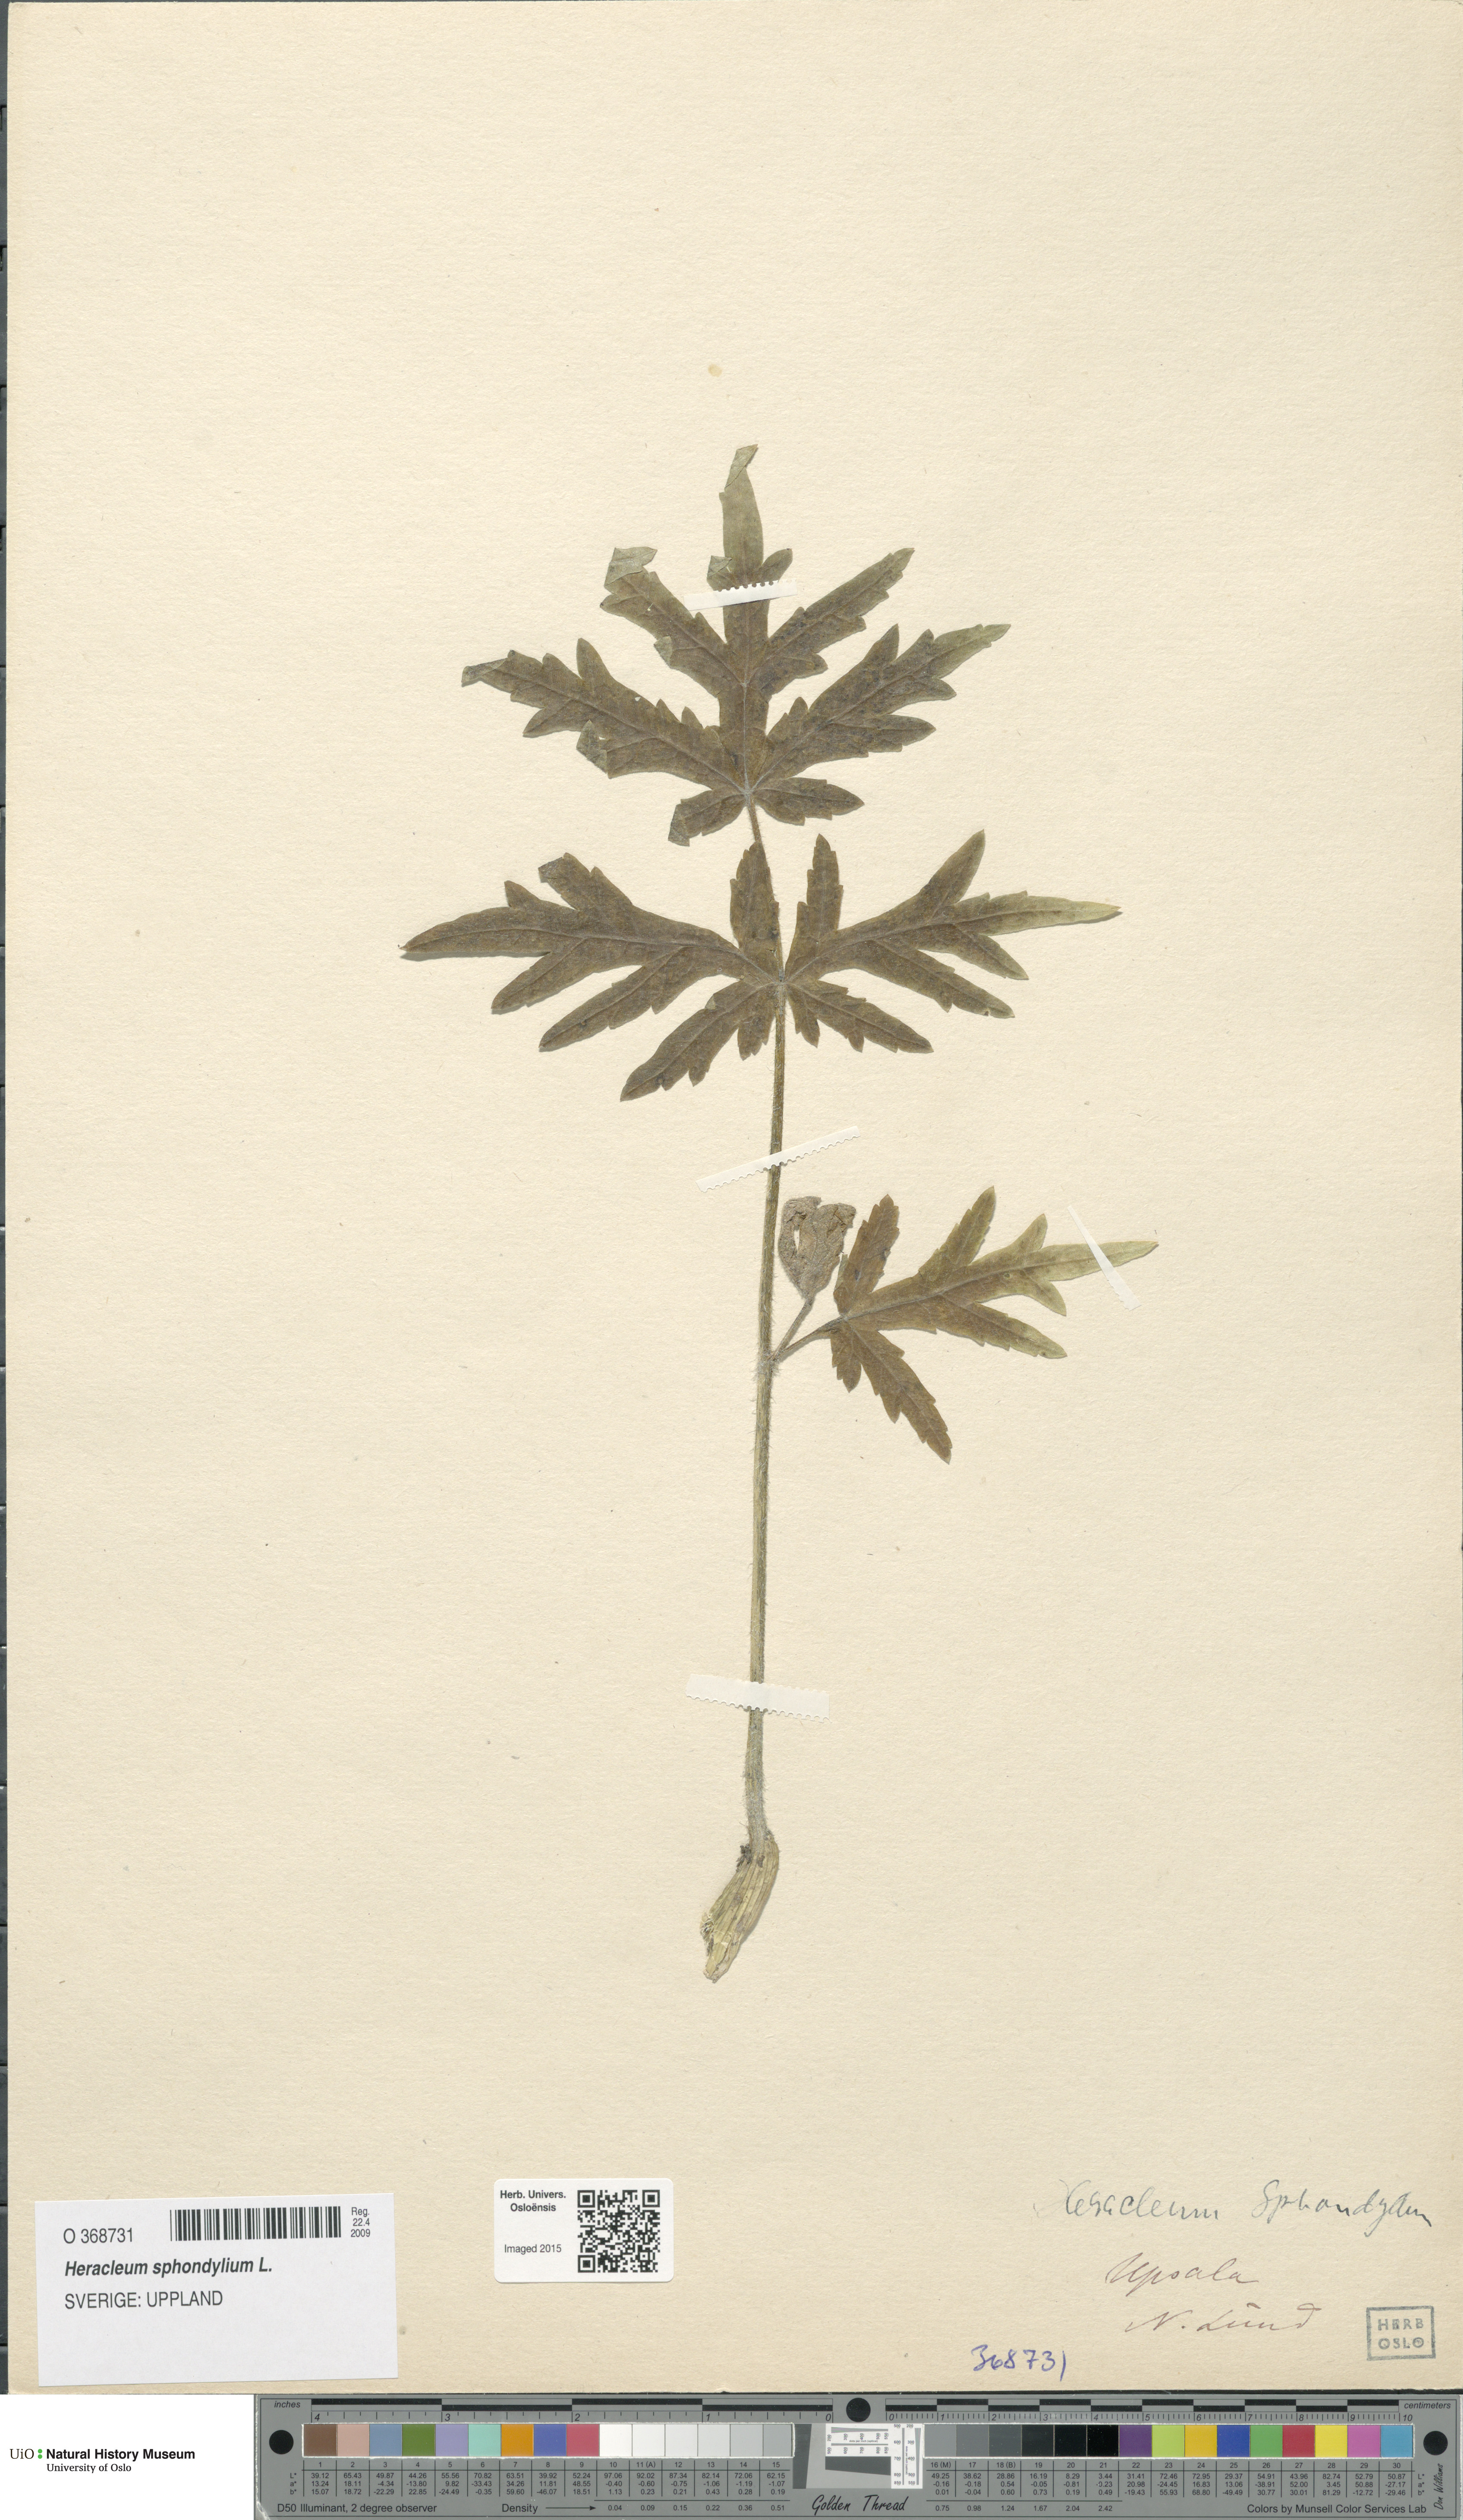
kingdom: Plantae
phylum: Tracheophyta
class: Magnoliopsida
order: Apiales
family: Apiaceae
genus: Heracleum
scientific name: Heracleum sphondylium
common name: Hogweed
